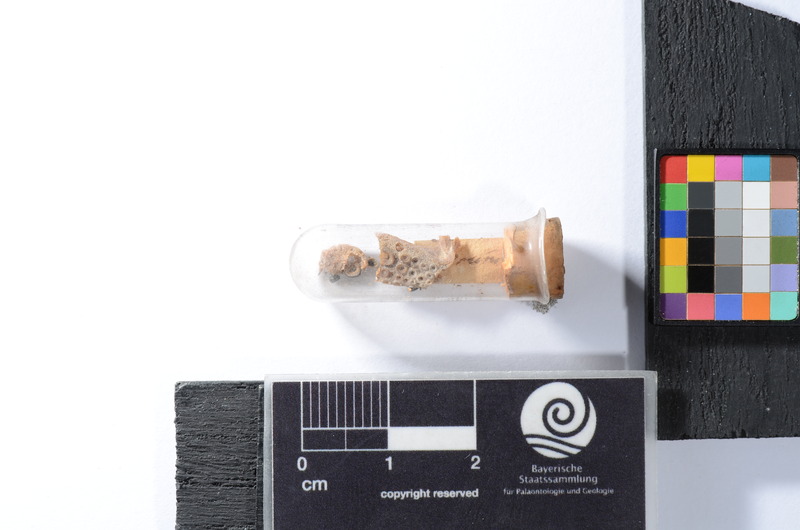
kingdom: Animalia
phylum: Chordata
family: Pycnodontidae
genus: Sphaerodus
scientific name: Sphaerodus
